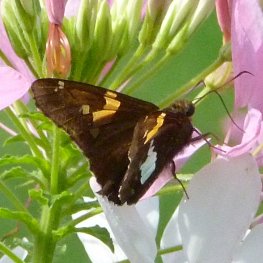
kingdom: Animalia
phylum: Arthropoda
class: Insecta
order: Lepidoptera
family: Hesperiidae
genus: Epargyreus
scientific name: Epargyreus clarus
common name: Silver-spotted Skipper
